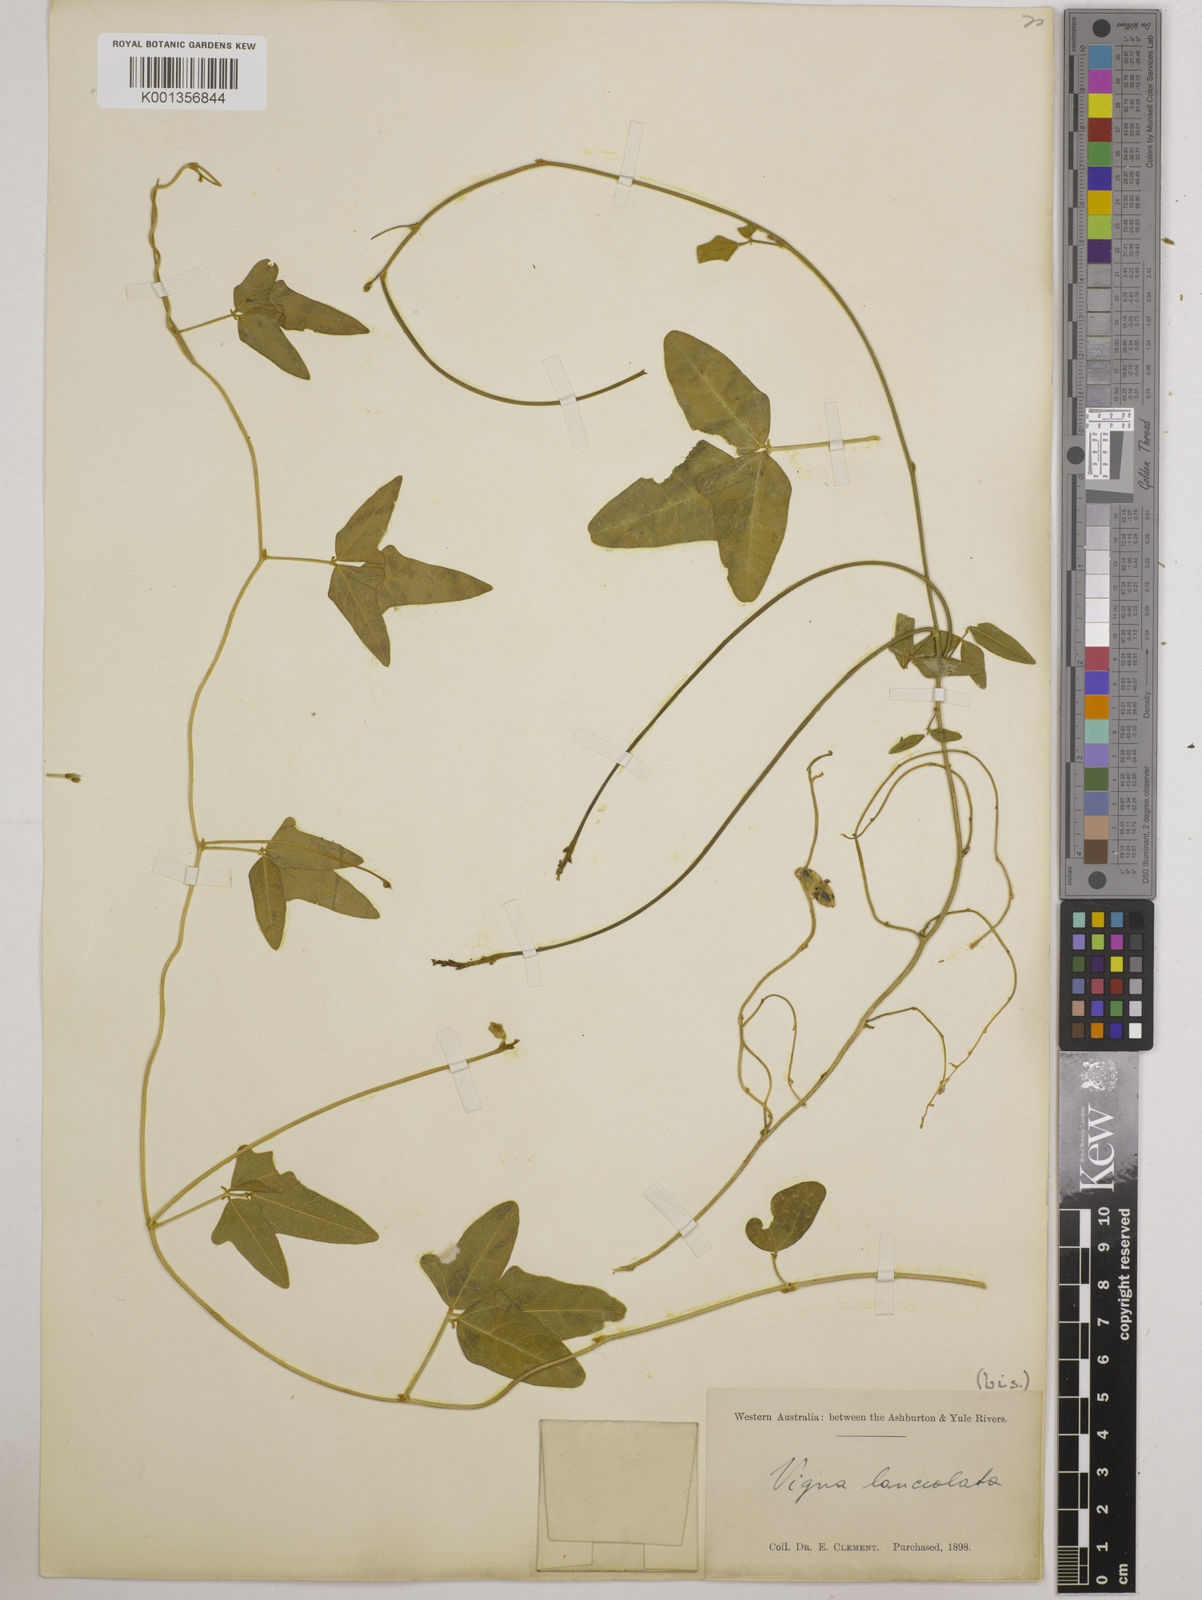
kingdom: Plantae
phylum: Tracheophyta
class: Magnoliopsida
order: Fabales
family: Fabaceae
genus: Vigna
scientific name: Vigna lanceolata
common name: Maloga-bean
